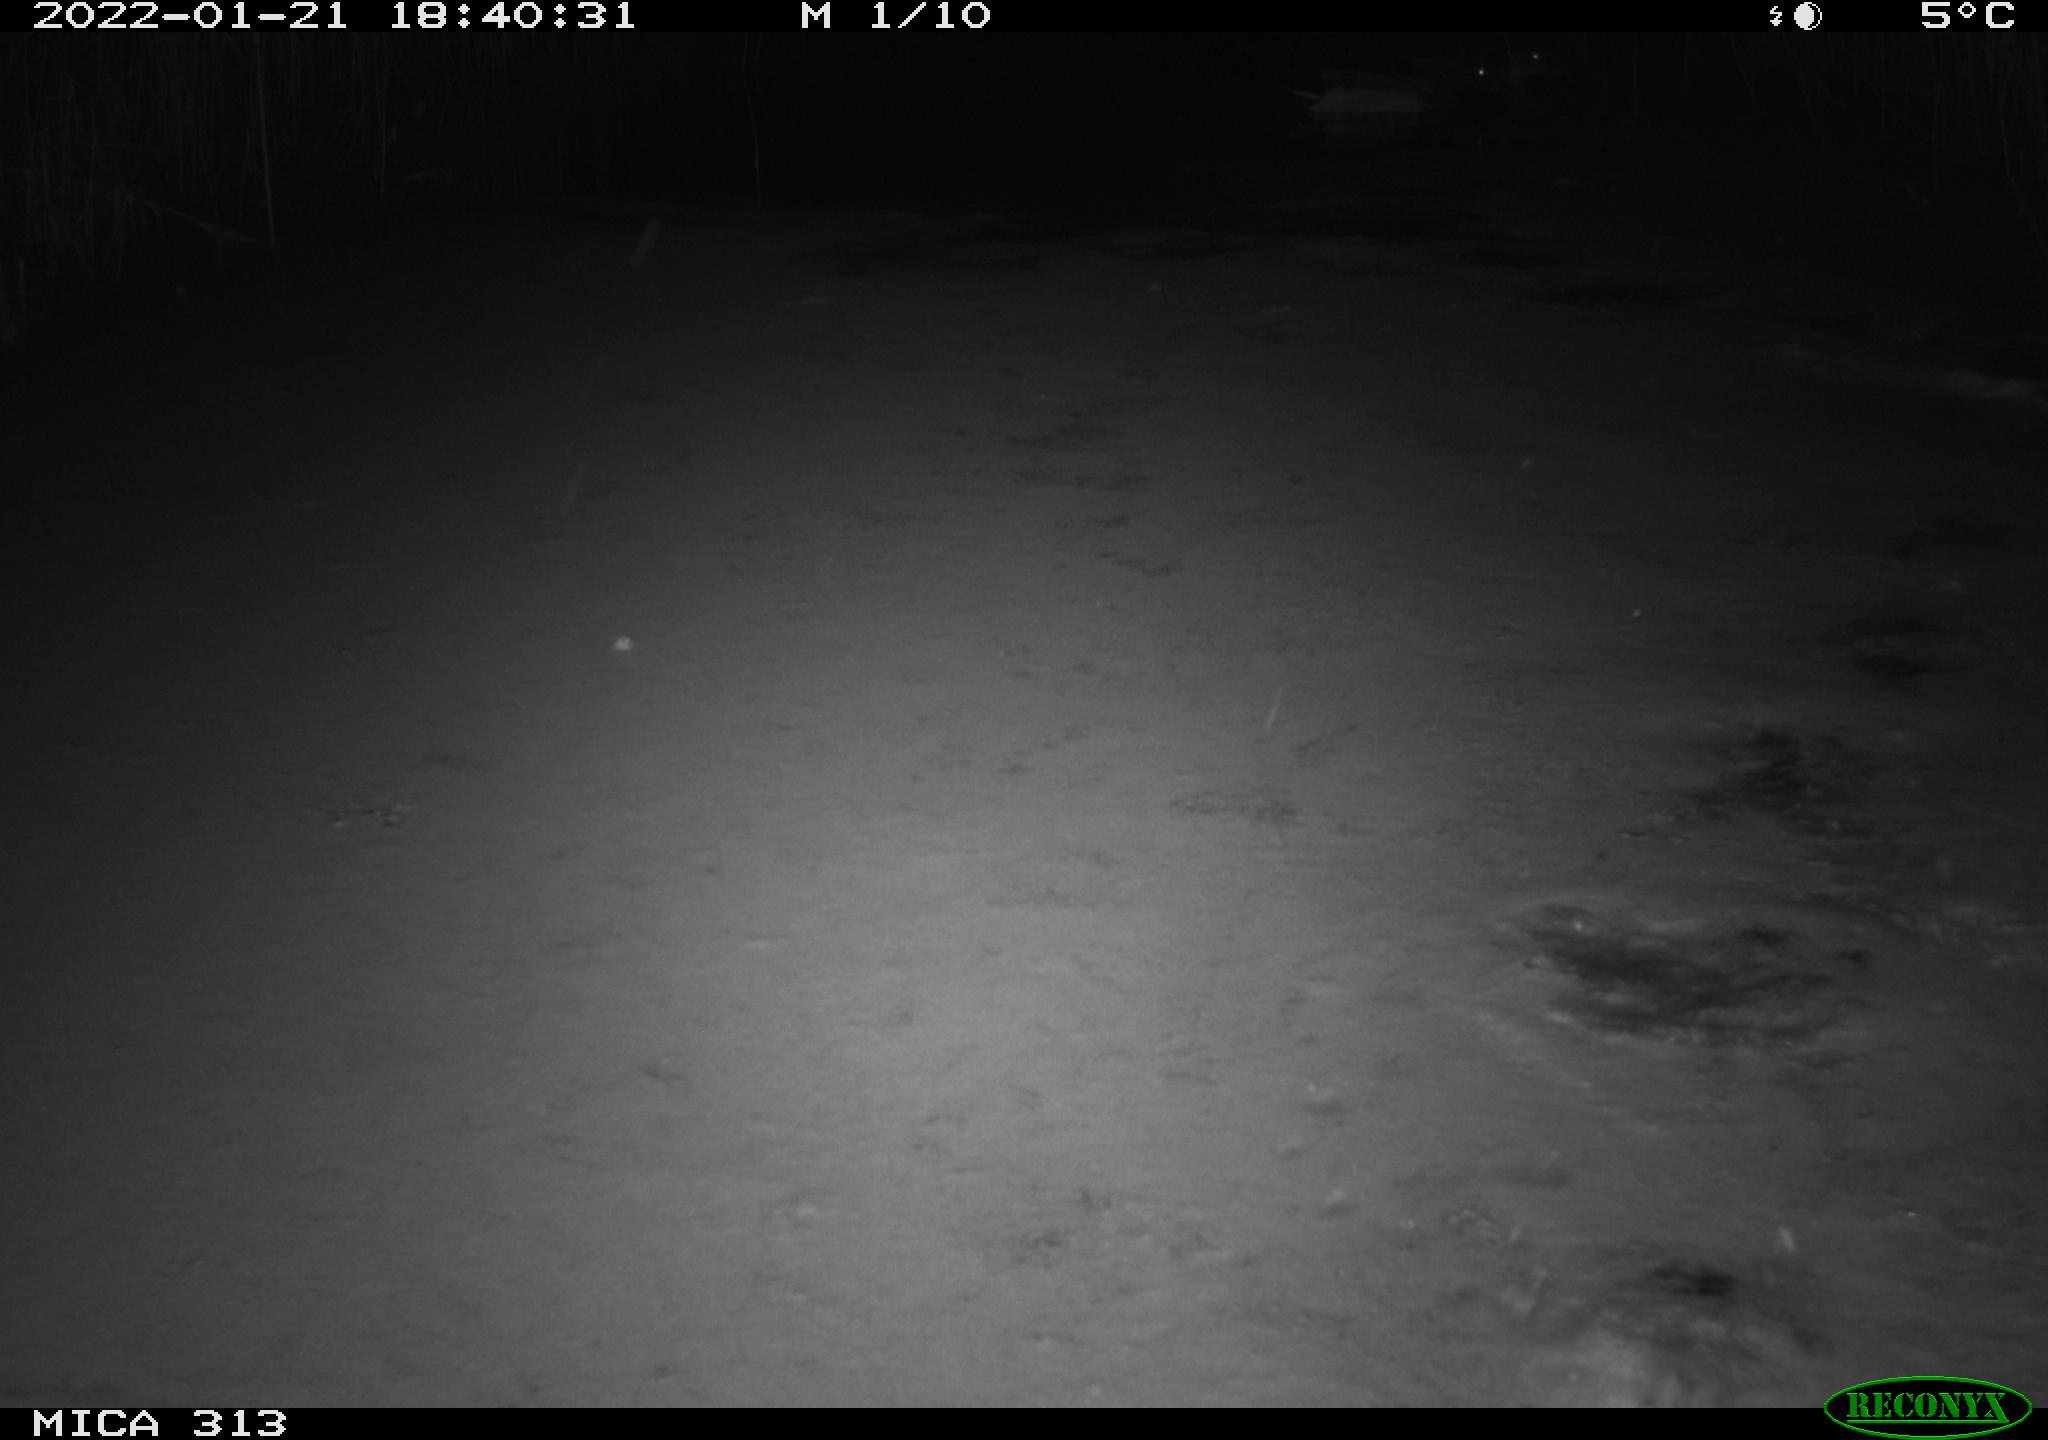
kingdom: Animalia
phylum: Chordata
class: Aves
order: Gruiformes
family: Rallidae
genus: Gallinula
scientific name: Gallinula chloropus
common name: Common moorhen
